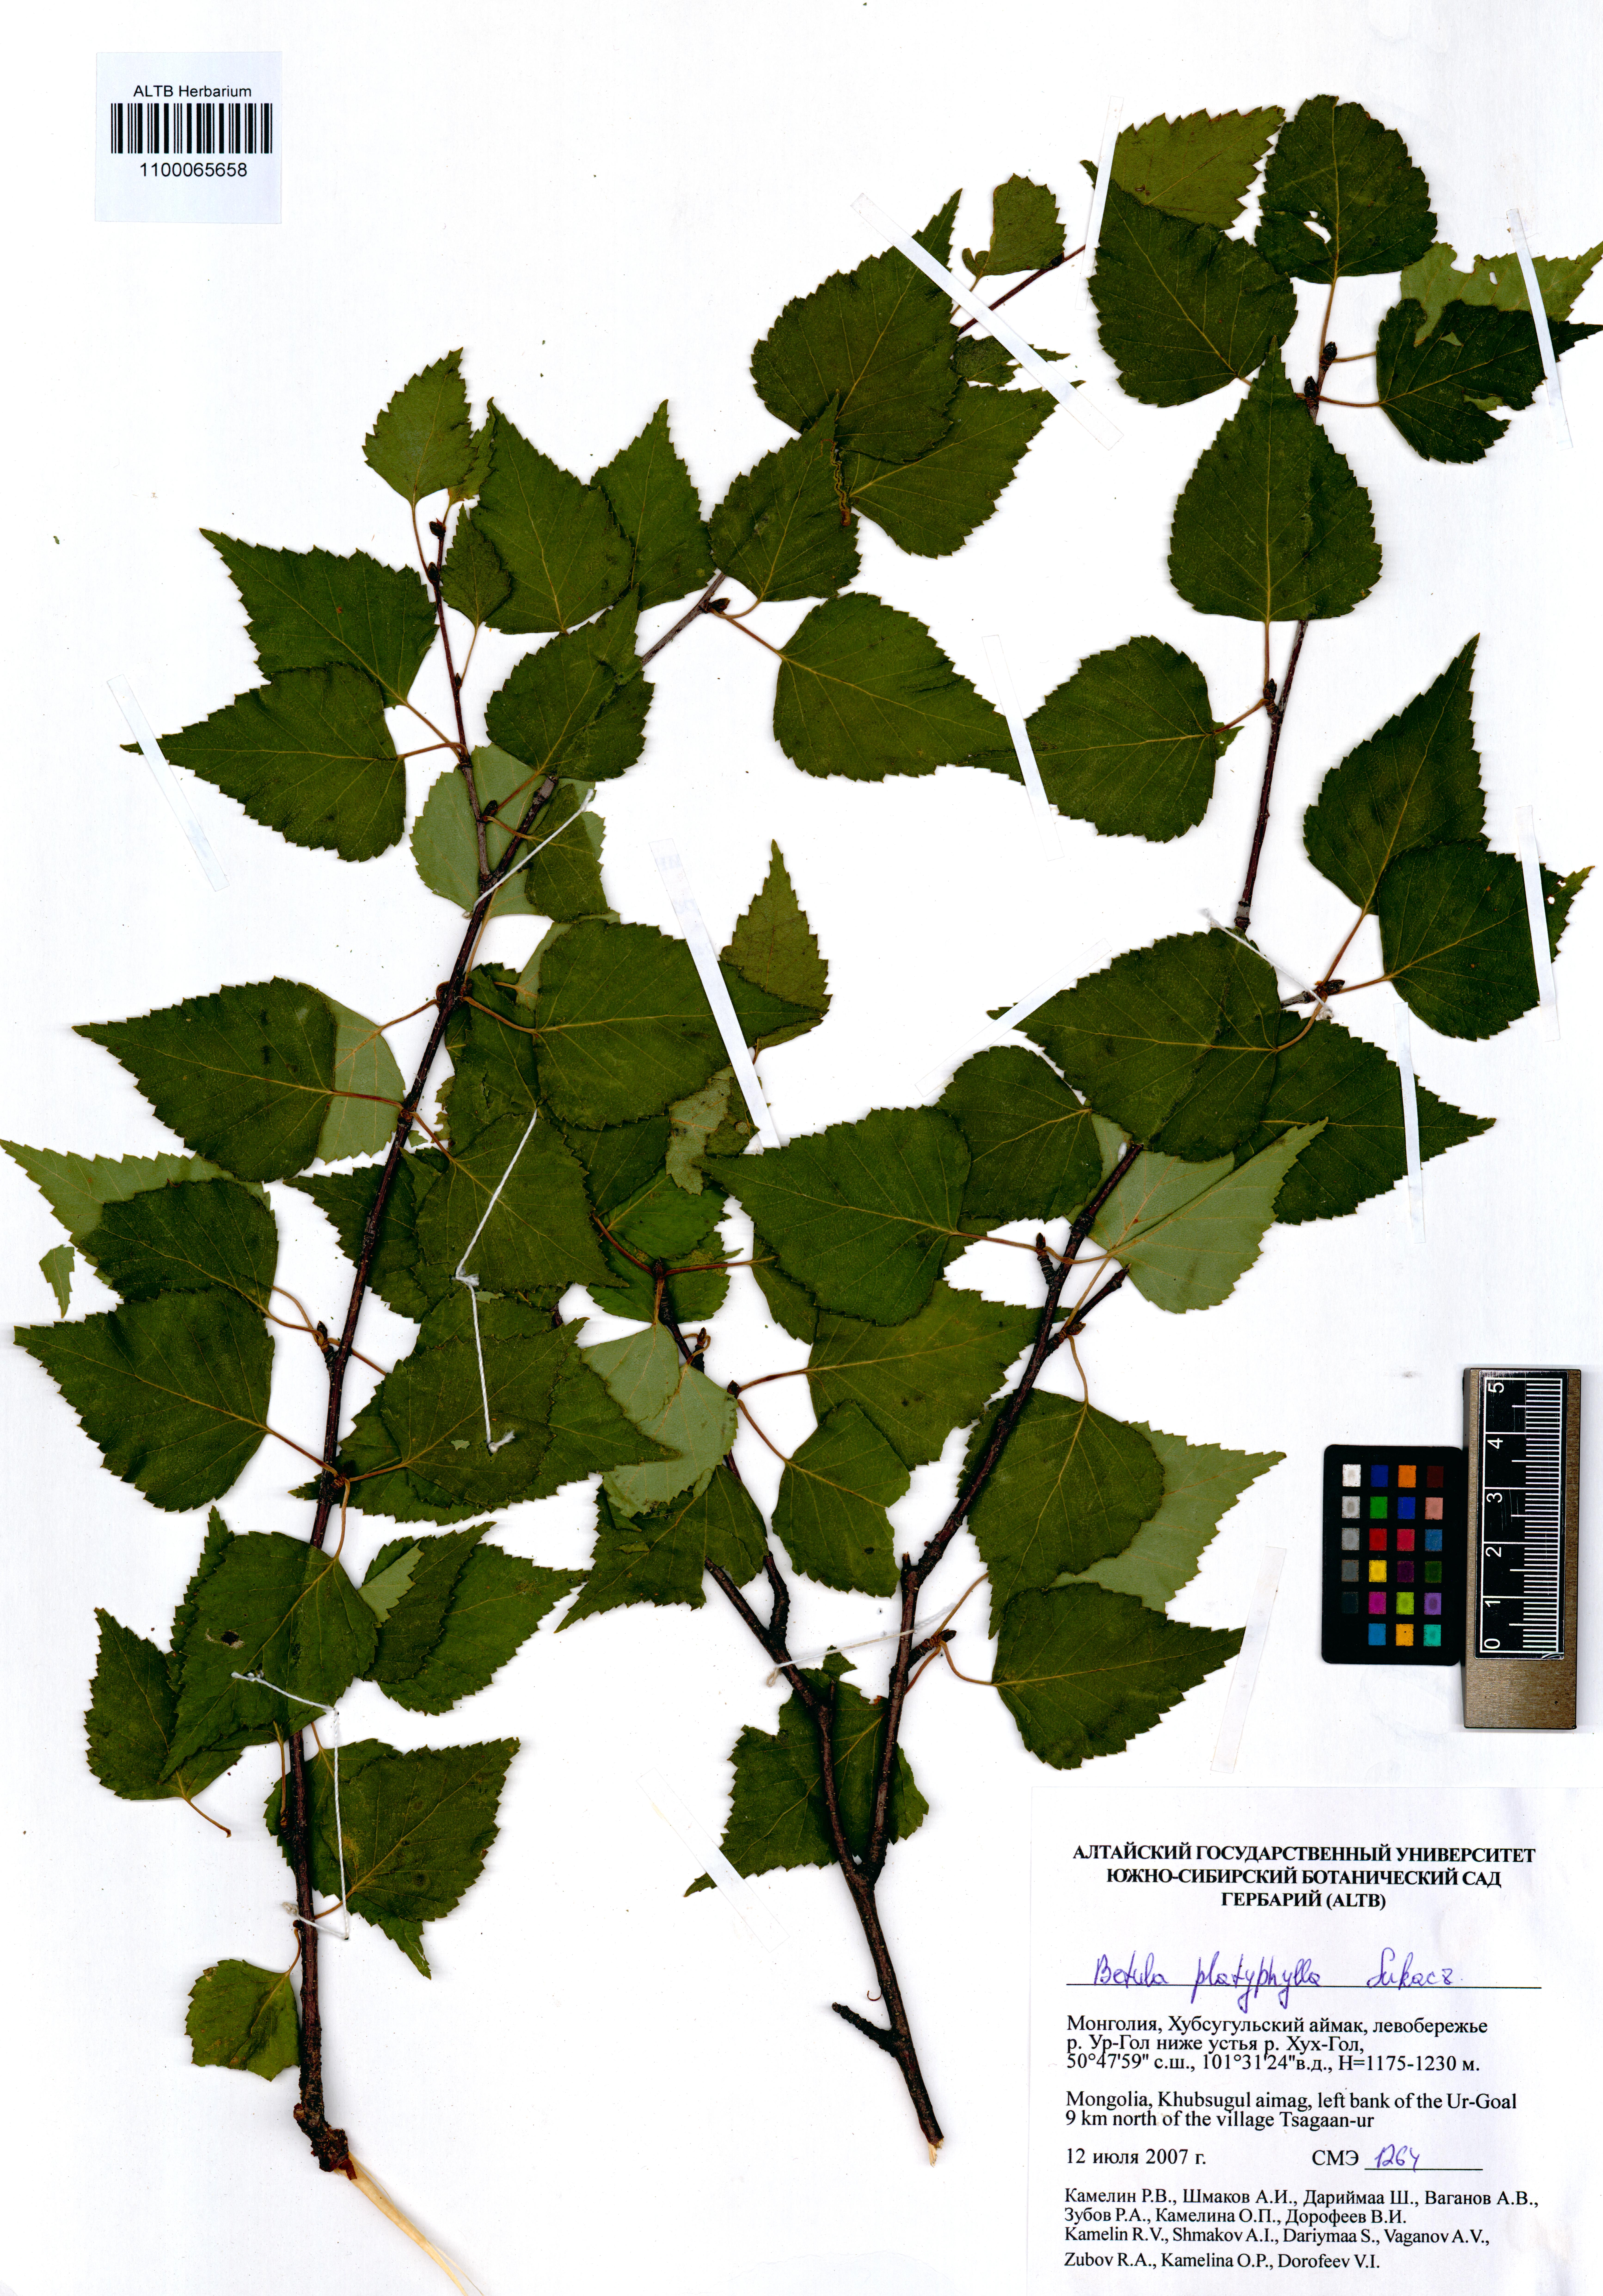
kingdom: Plantae
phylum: Tracheophyta
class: Magnoliopsida
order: Fagales
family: Betulaceae
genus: Betula
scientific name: Betula pendula
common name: Silver birch
